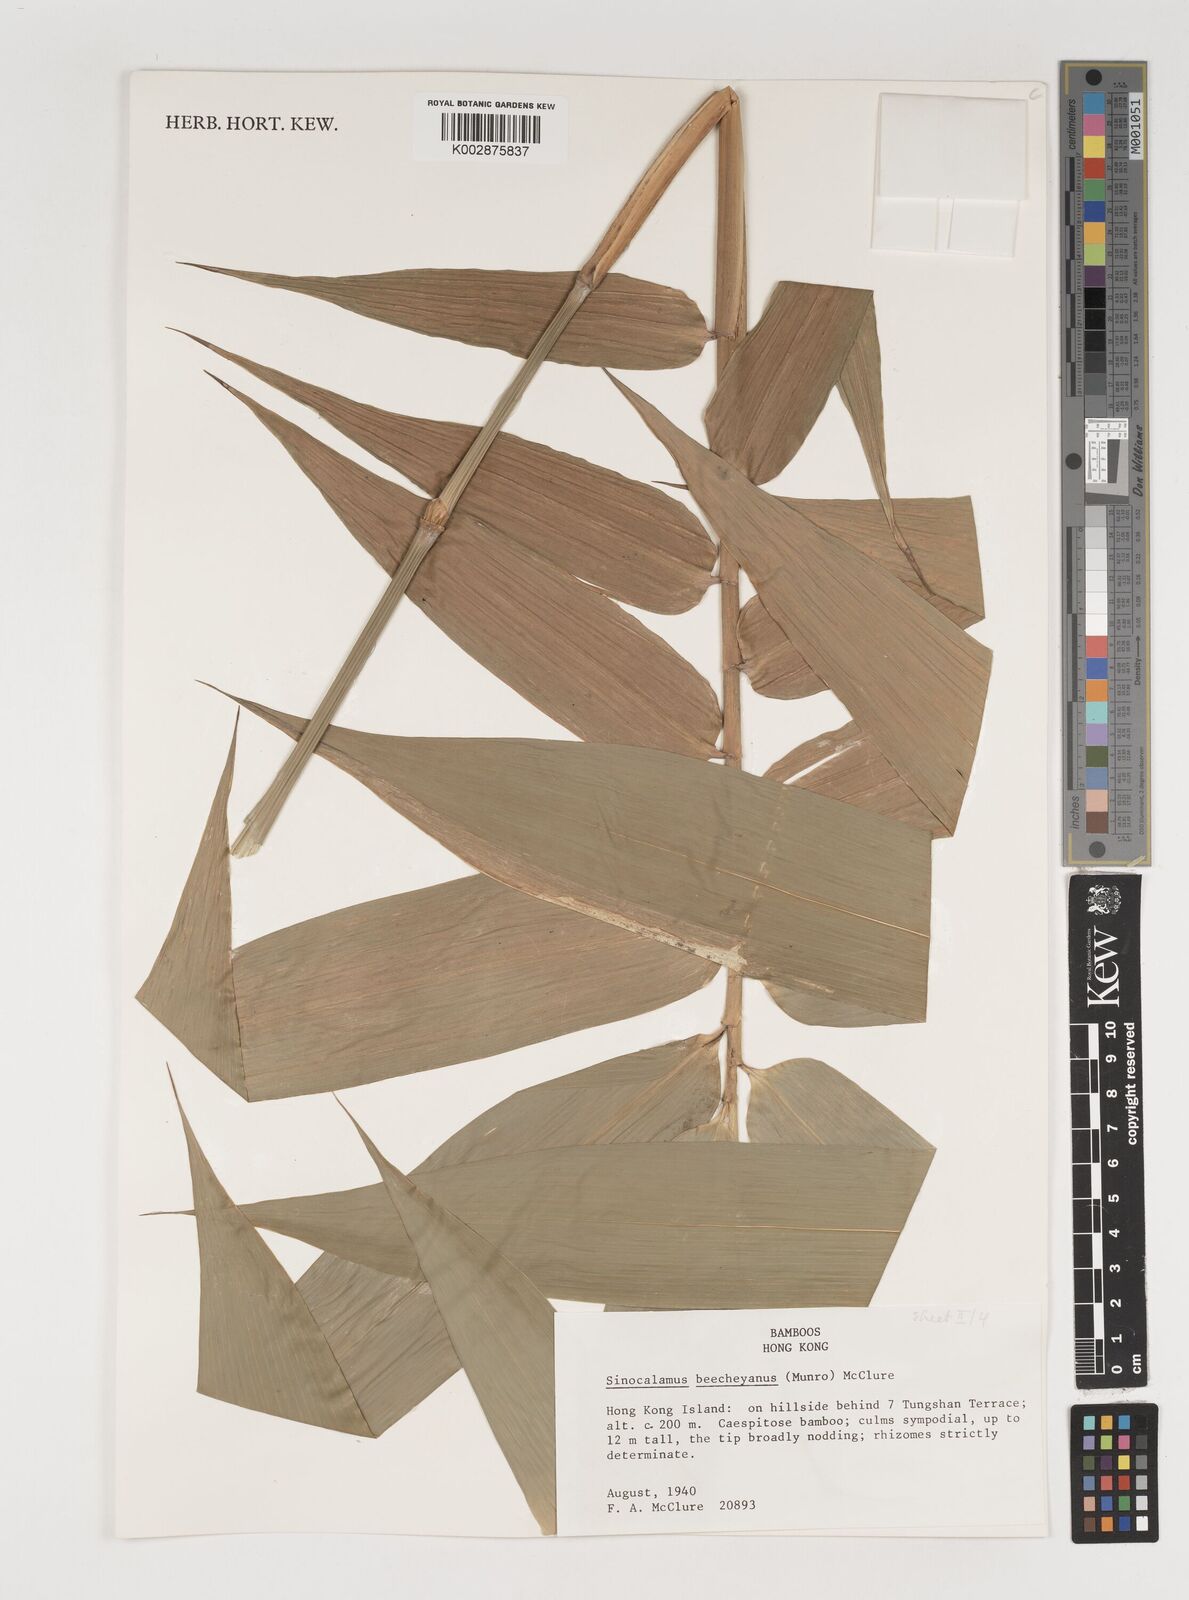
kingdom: Plantae
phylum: Tracheophyta
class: Liliopsida
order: Poales
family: Poaceae
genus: Bambusa
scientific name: Bambusa beecheyana
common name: Beechey's bamboo
